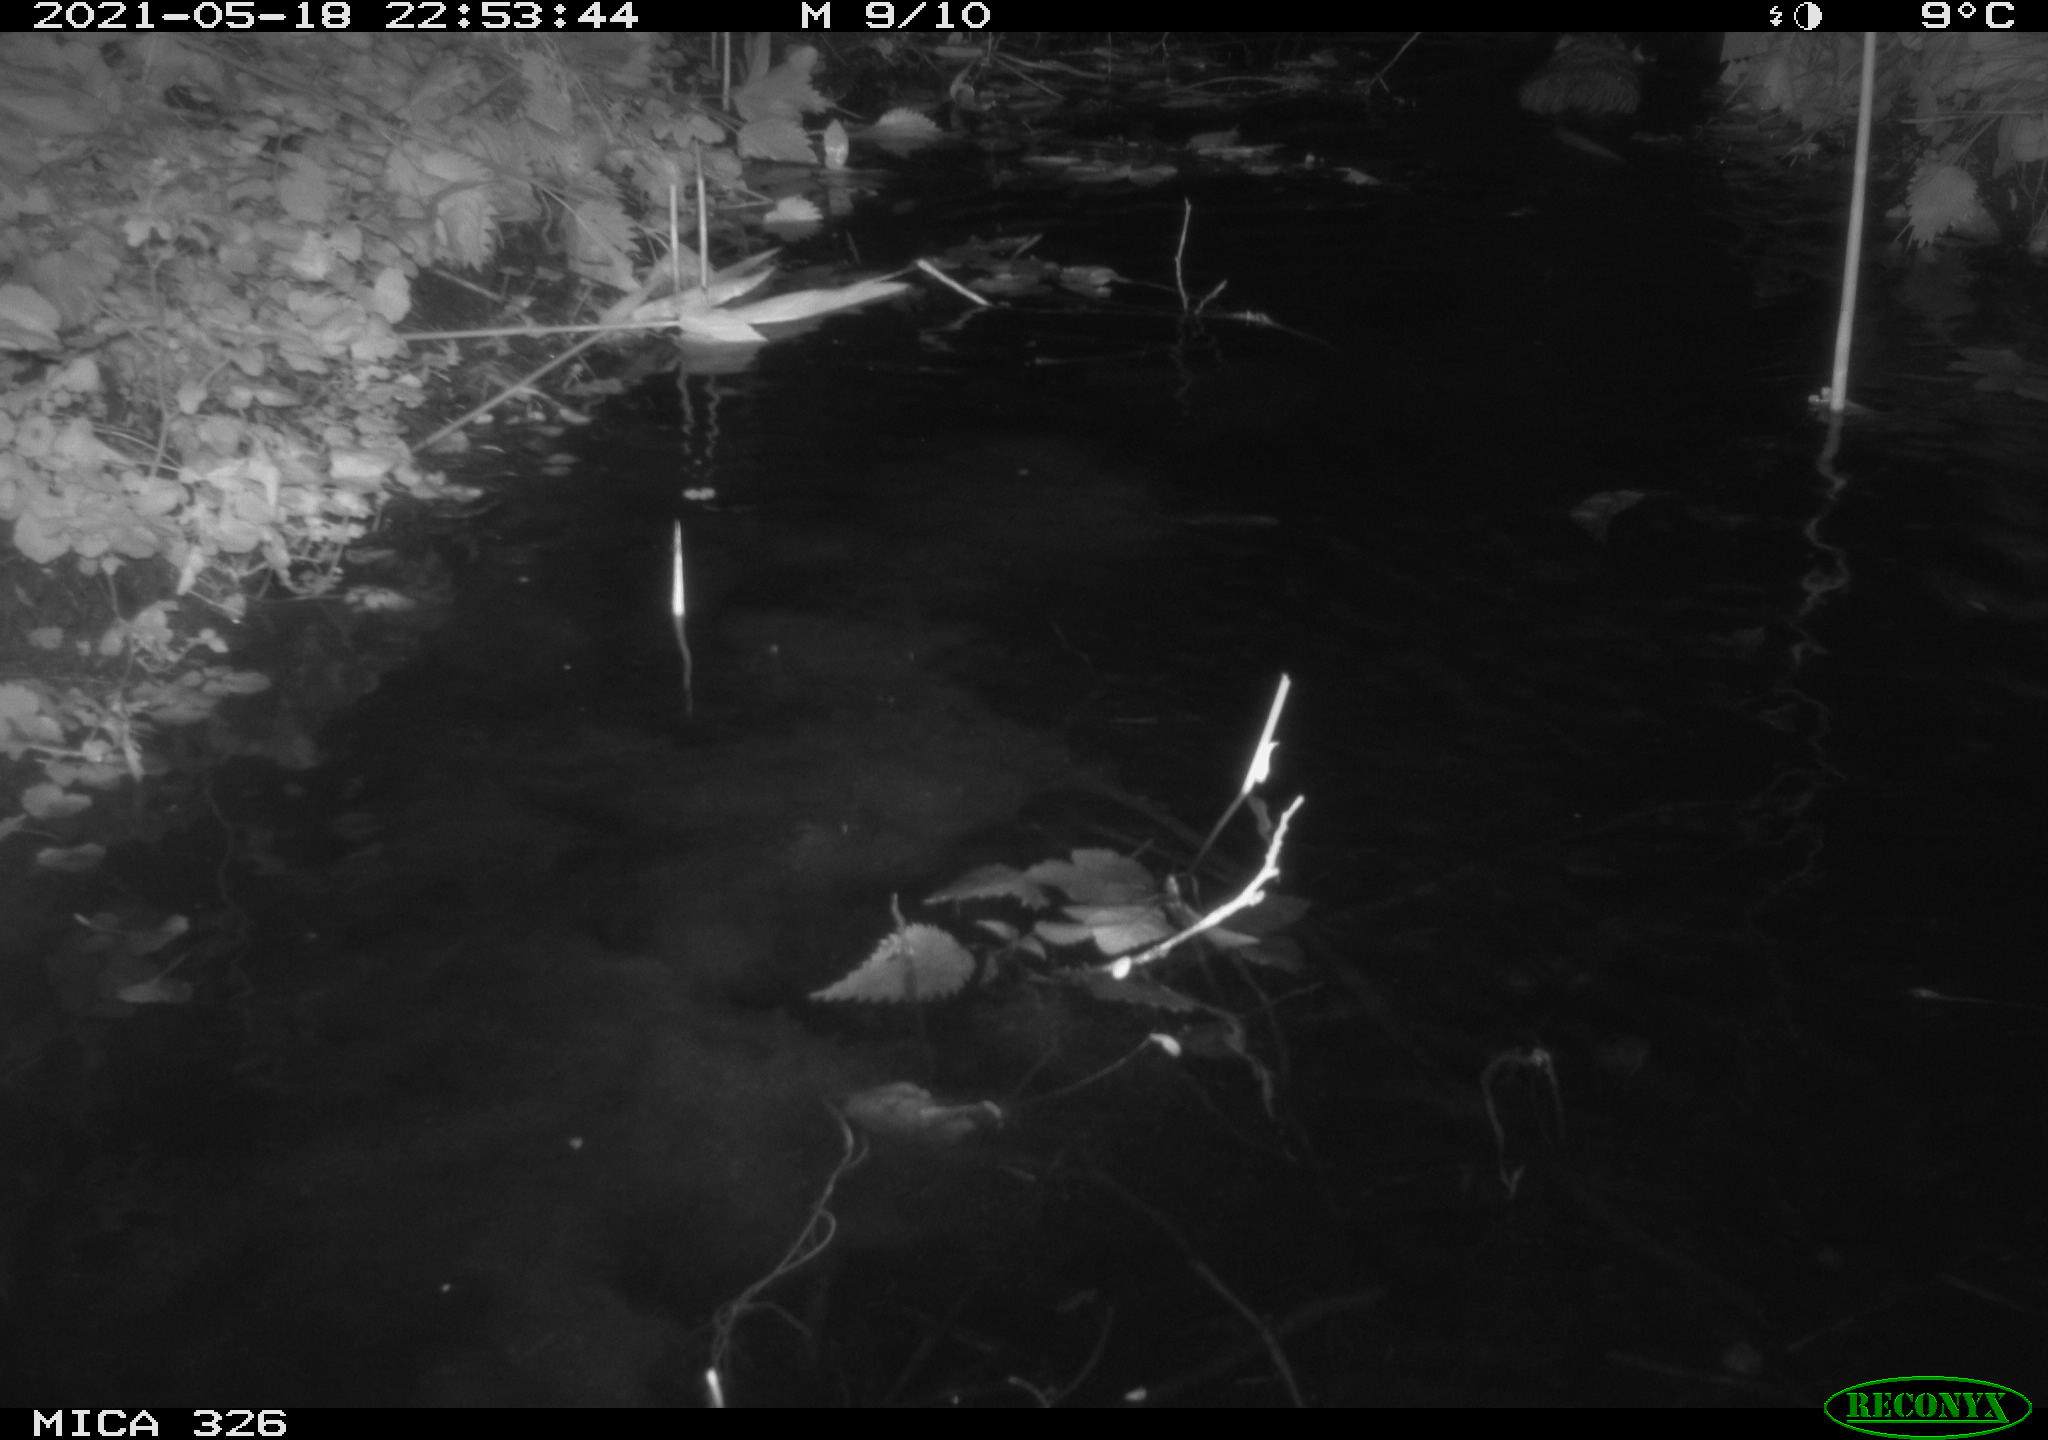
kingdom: Animalia
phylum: Chordata
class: Mammalia
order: Rodentia
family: Cricetidae
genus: Ondatra
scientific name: Ondatra zibethicus
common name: Muskrat
